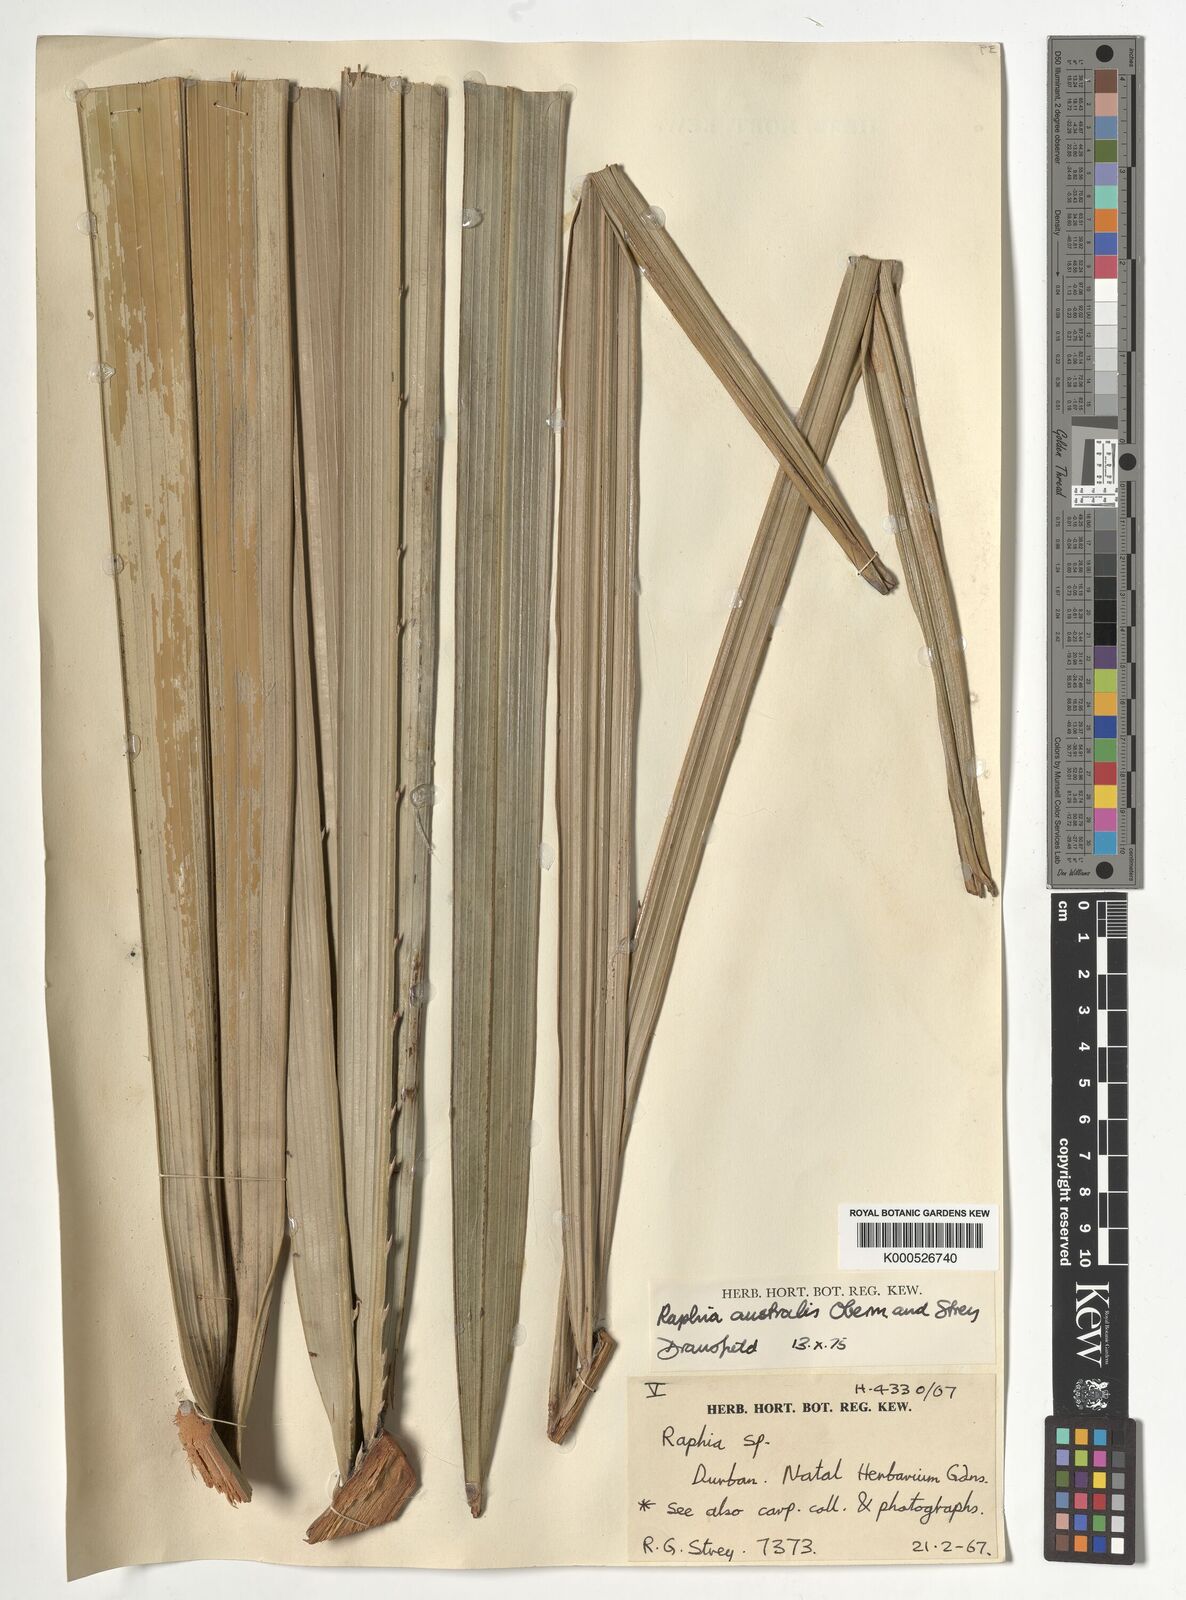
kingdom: Plantae
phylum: Tracheophyta
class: Liliopsida
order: Arecales
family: Arecaceae
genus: Raphia
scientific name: Raphia australis
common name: Giant palm
